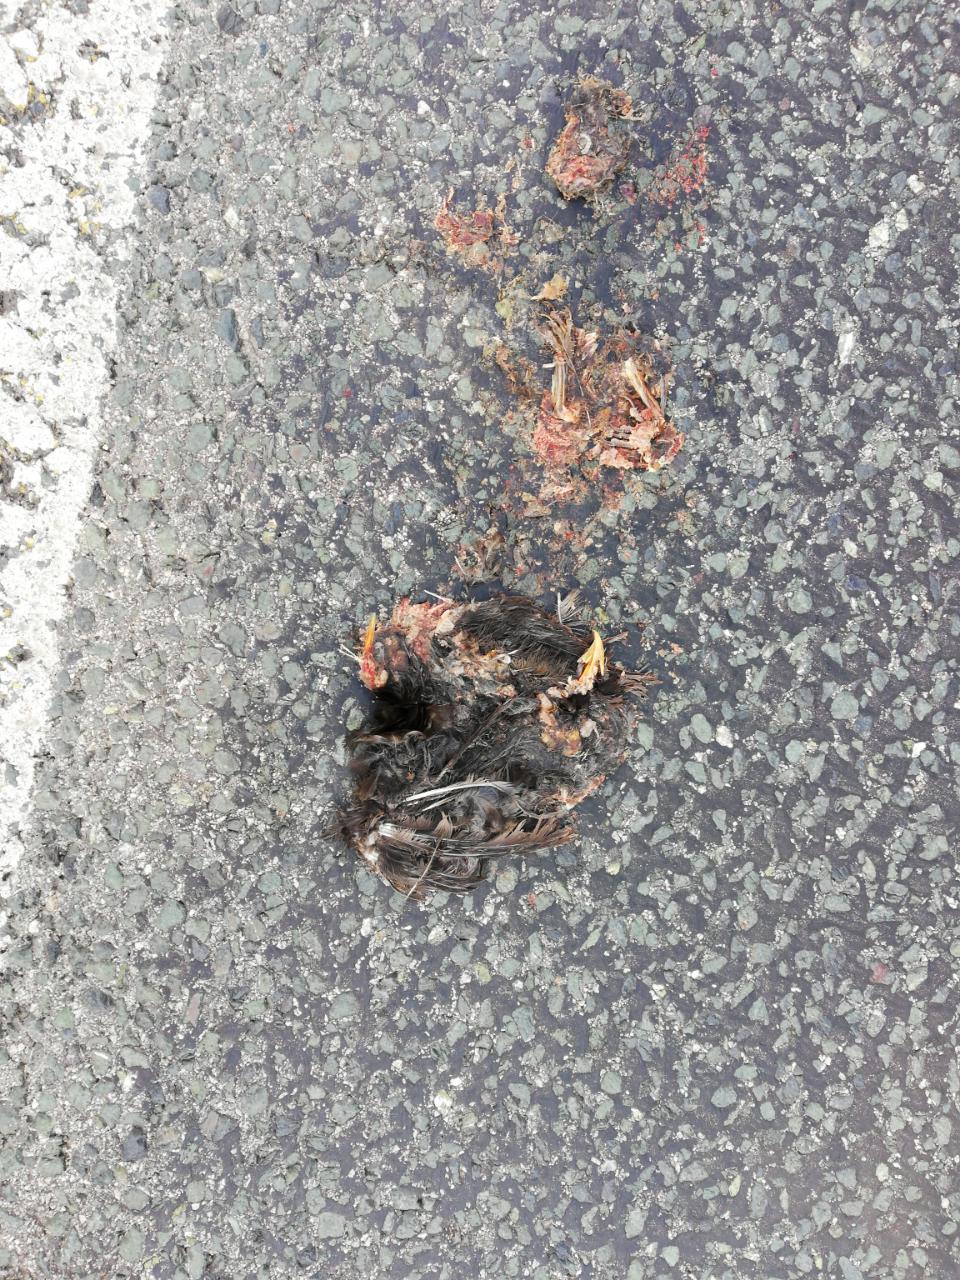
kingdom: Animalia
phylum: Chordata
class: Aves
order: Passeriformes
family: Turdidae
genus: Turdus
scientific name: Turdus merula
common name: Common blackbird
